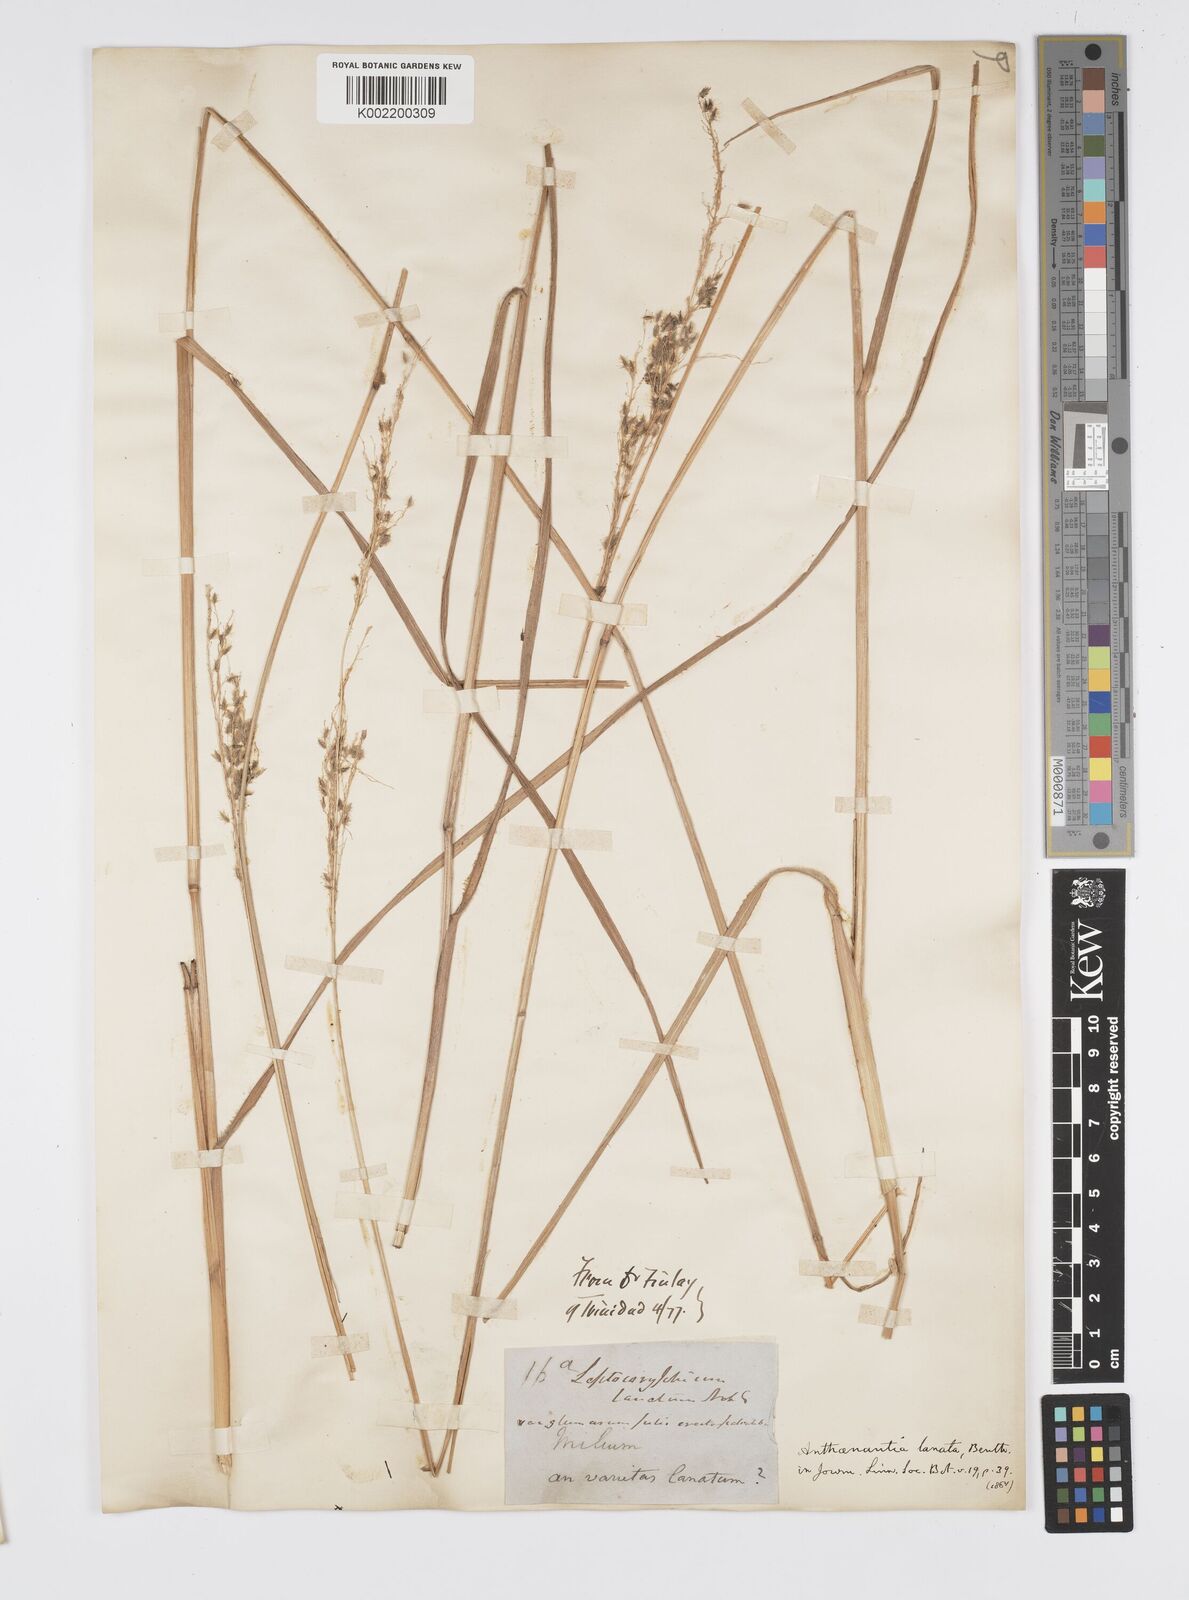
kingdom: Plantae
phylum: Tracheophyta
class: Liliopsida
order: Poales
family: Poaceae
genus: Anthenantia
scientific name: Anthenantia lanata
